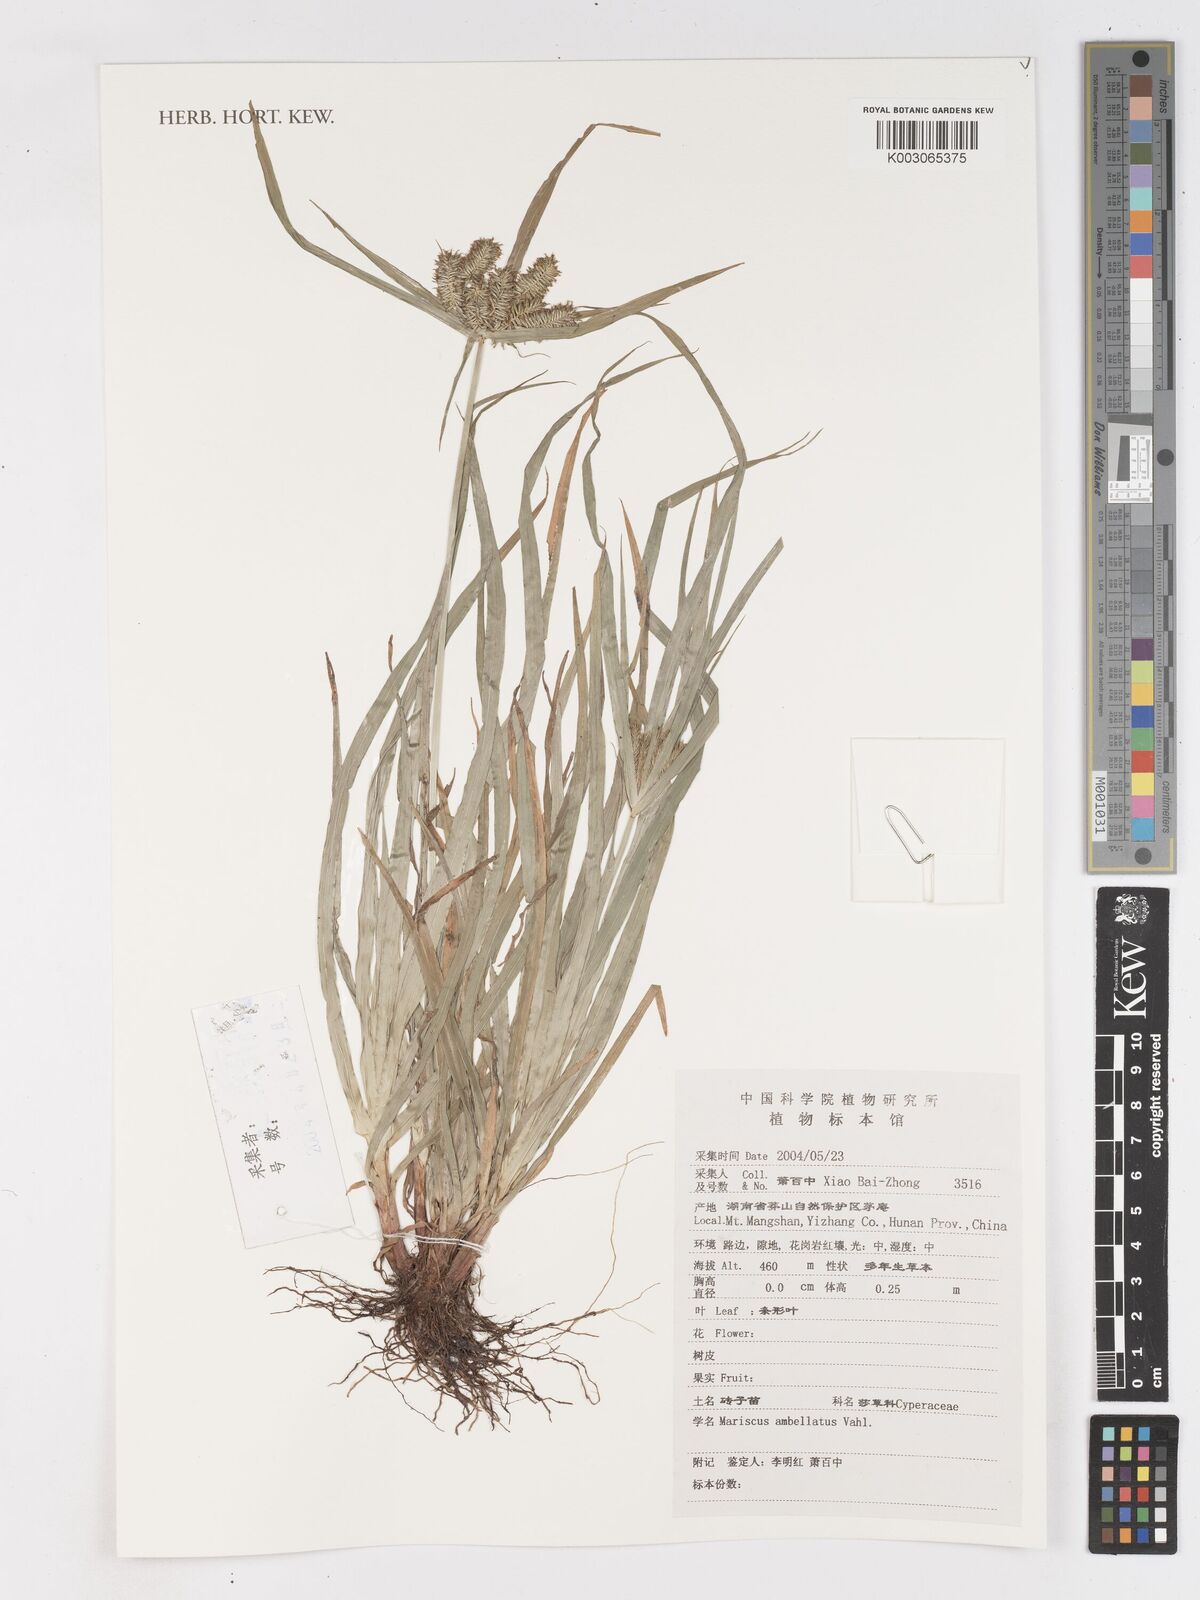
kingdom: Plantae
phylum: Tracheophyta
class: Liliopsida
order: Poales
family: Cyperaceae
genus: Cyperus
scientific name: Cyperus
